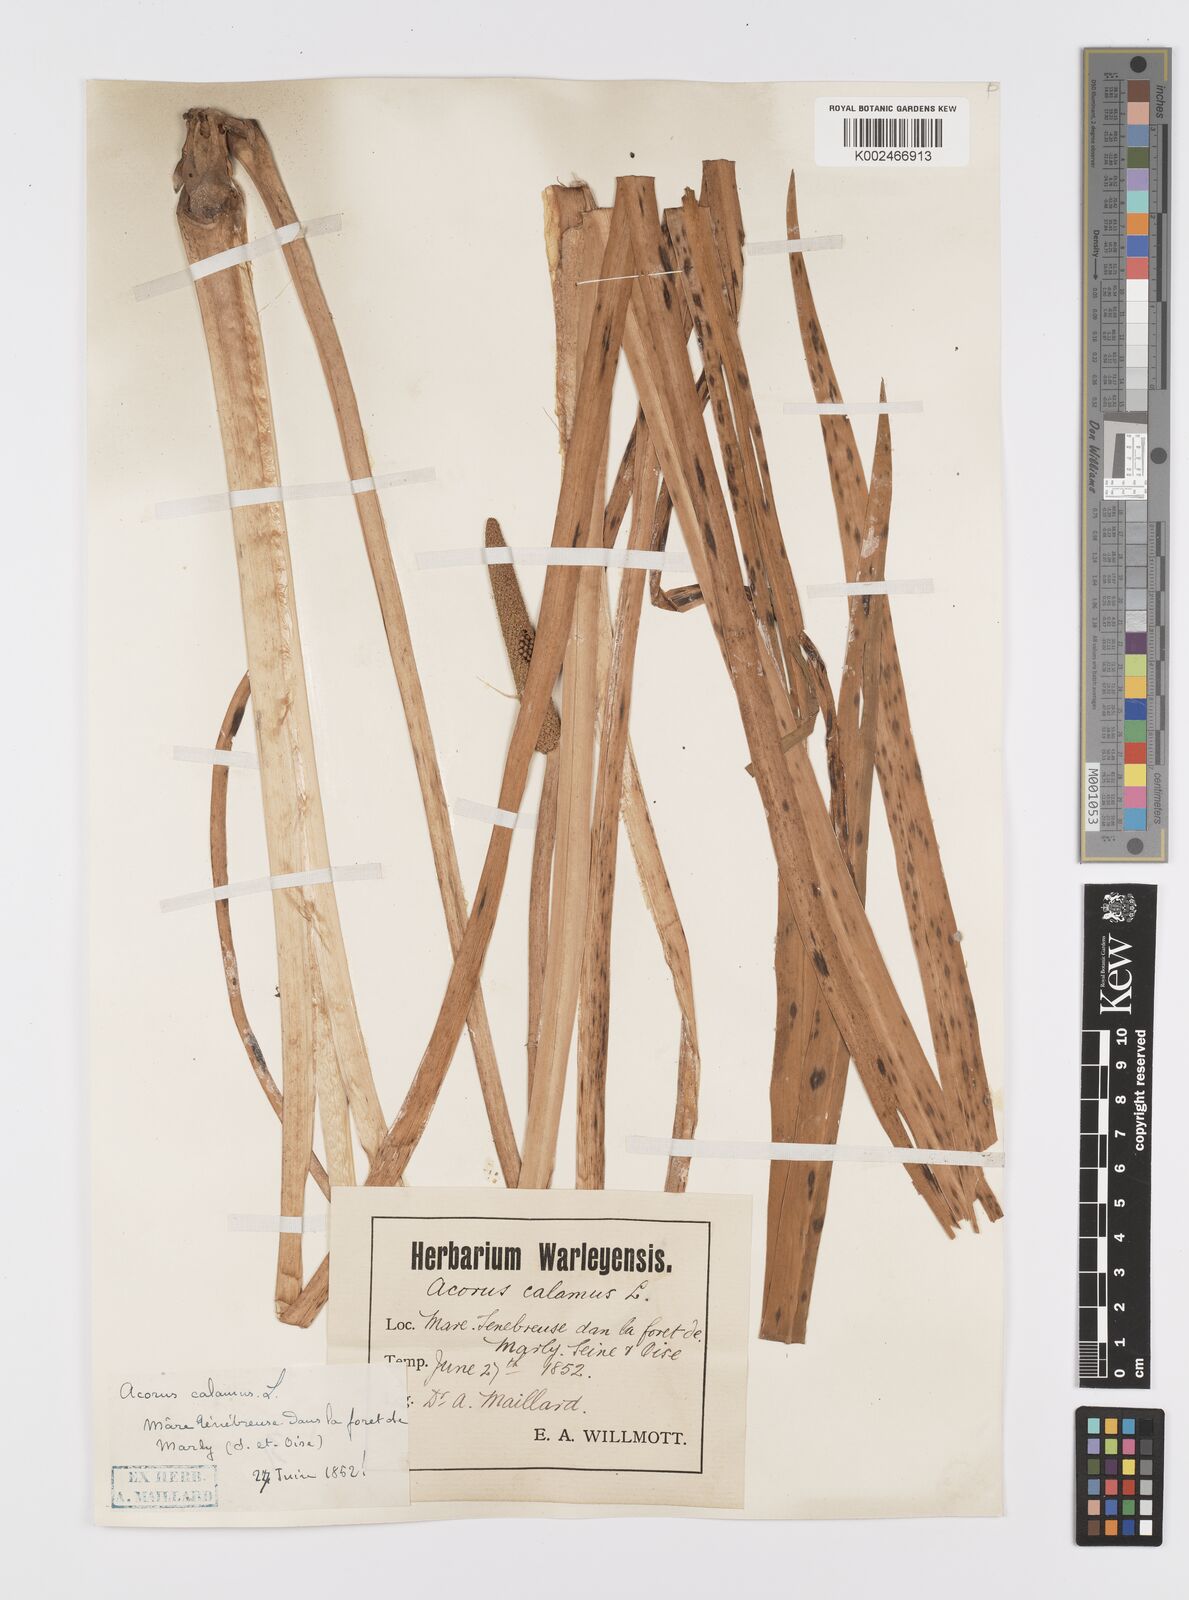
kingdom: Plantae
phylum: Tracheophyta
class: Liliopsida
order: Acorales
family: Acoraceae
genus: Acorus
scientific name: Acorus calamus
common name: Sweet-flag
